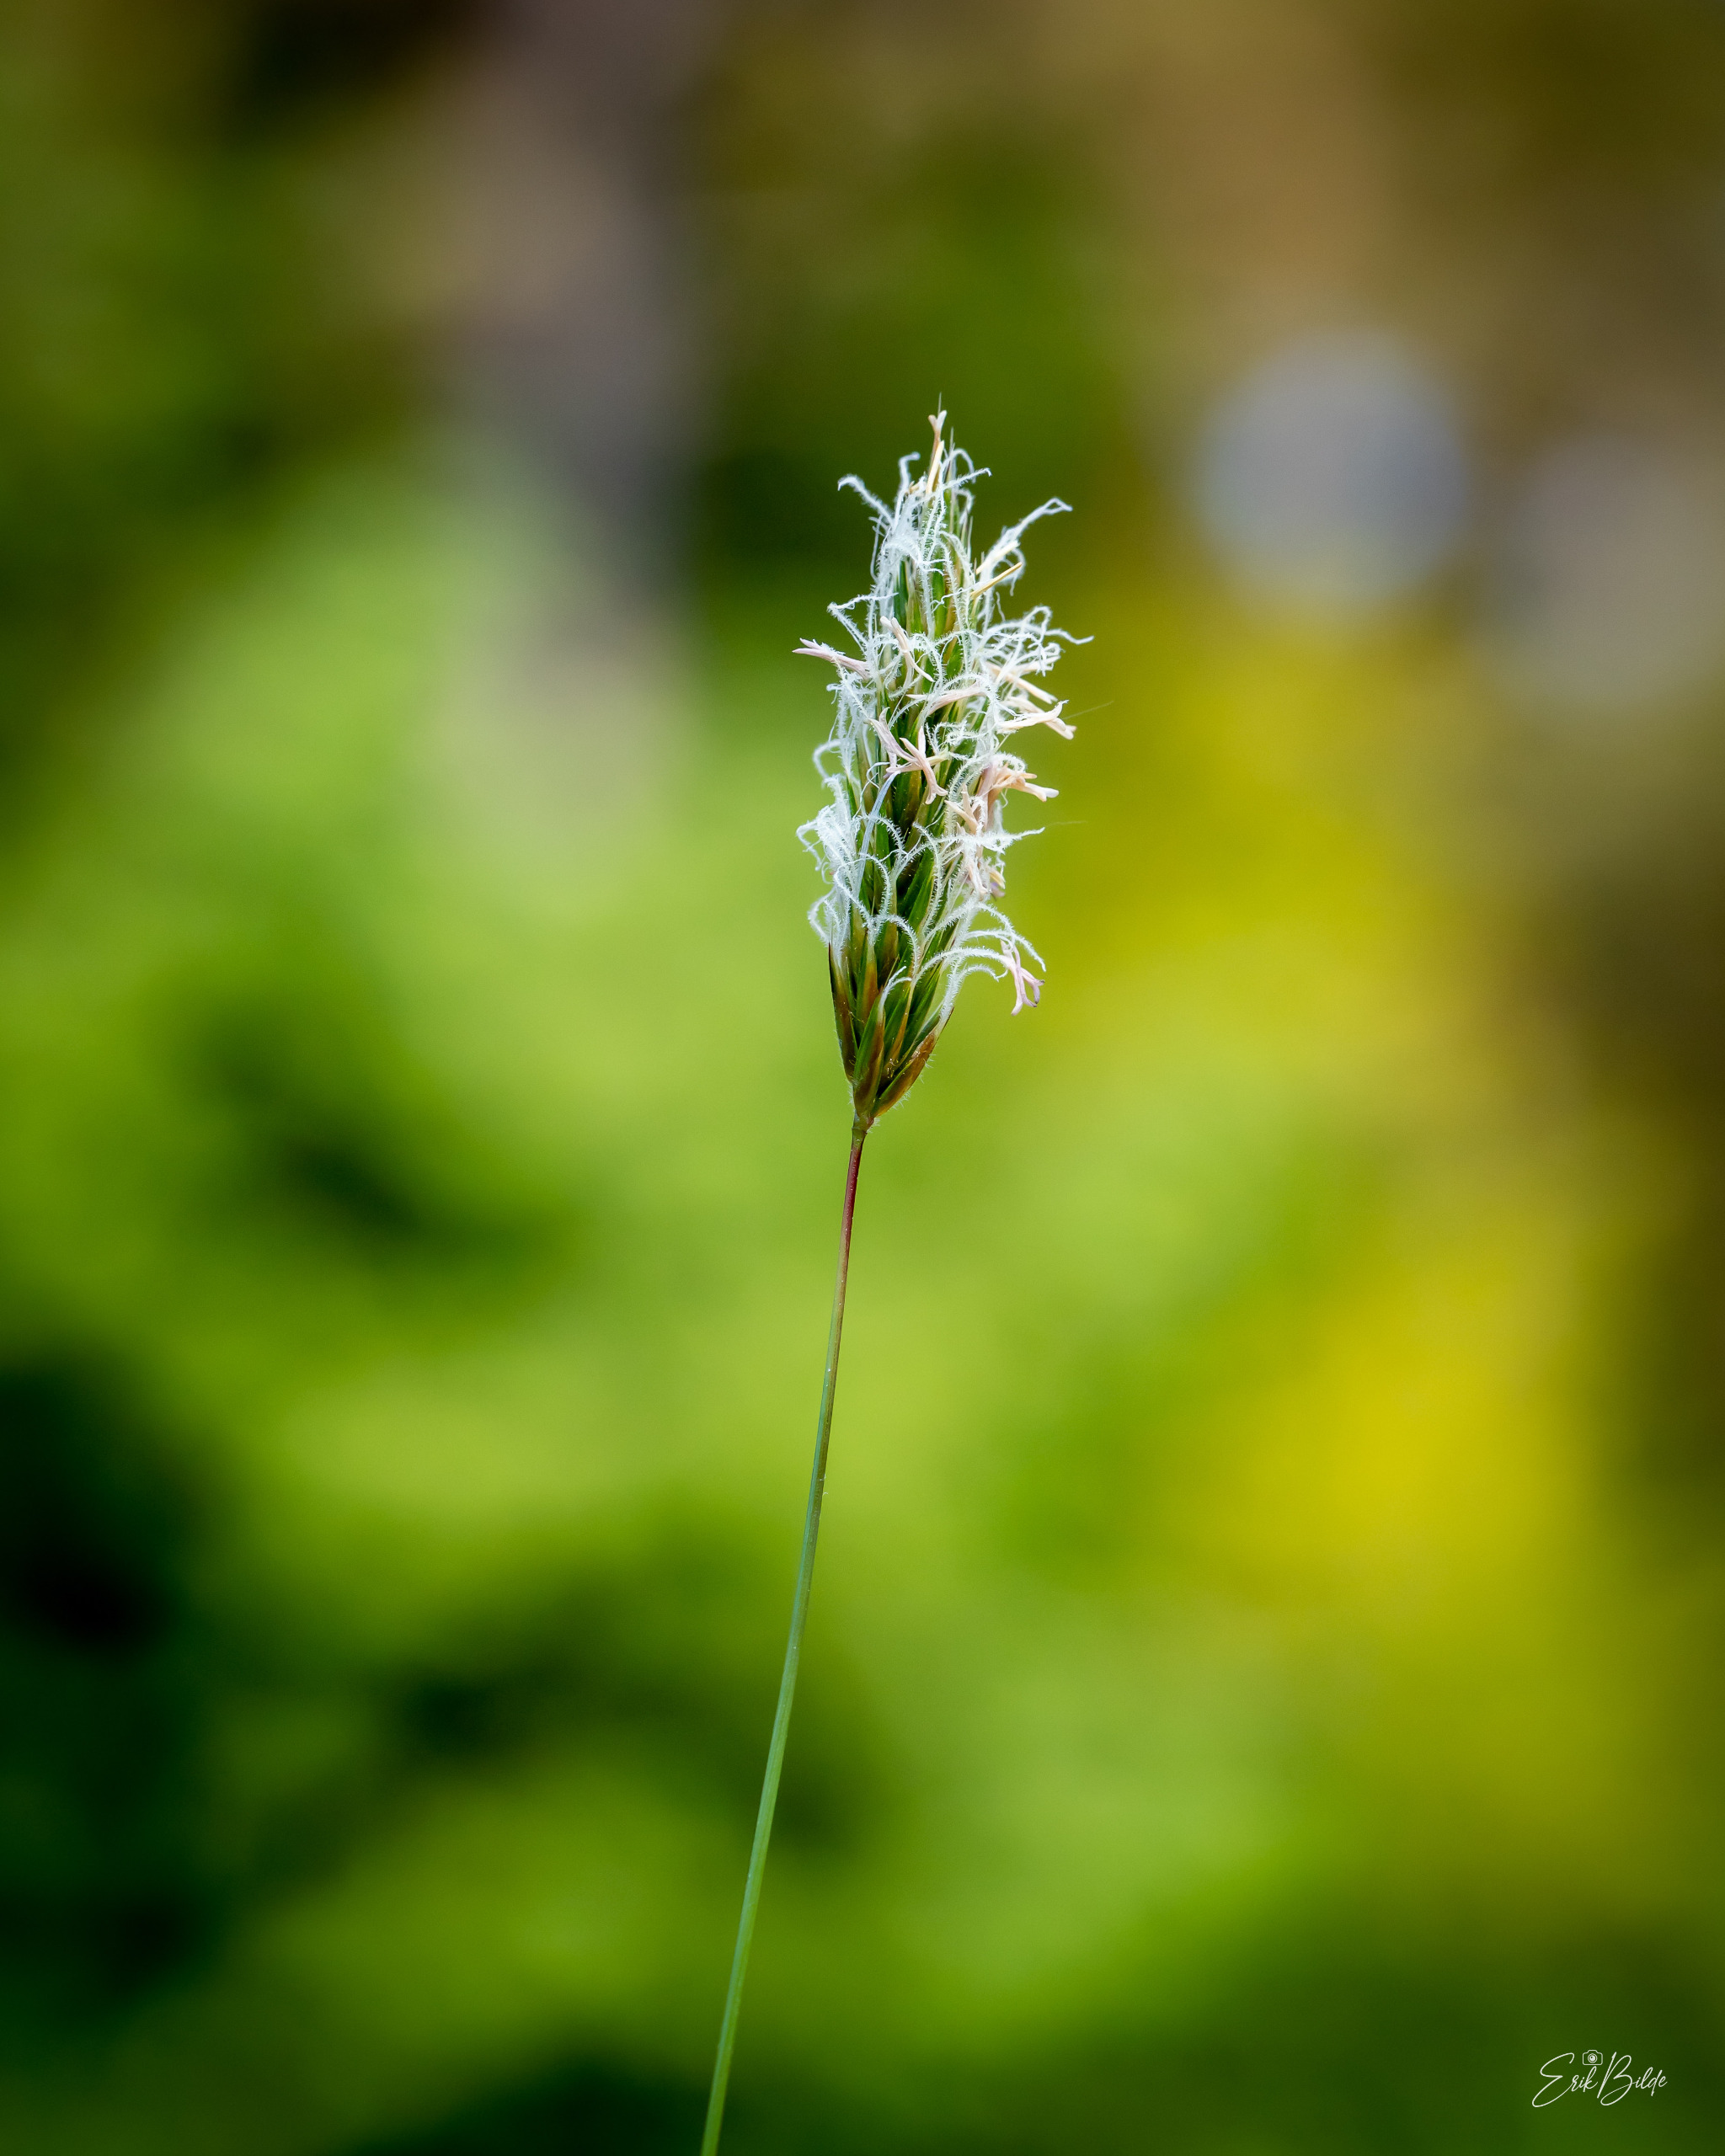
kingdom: Plantae
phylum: Tracheophyta
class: Liliopsida
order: Poales
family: Poaceae
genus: Anthoxanthum
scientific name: Anthoxanthum odoratum
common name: Vellugtende gulaks
